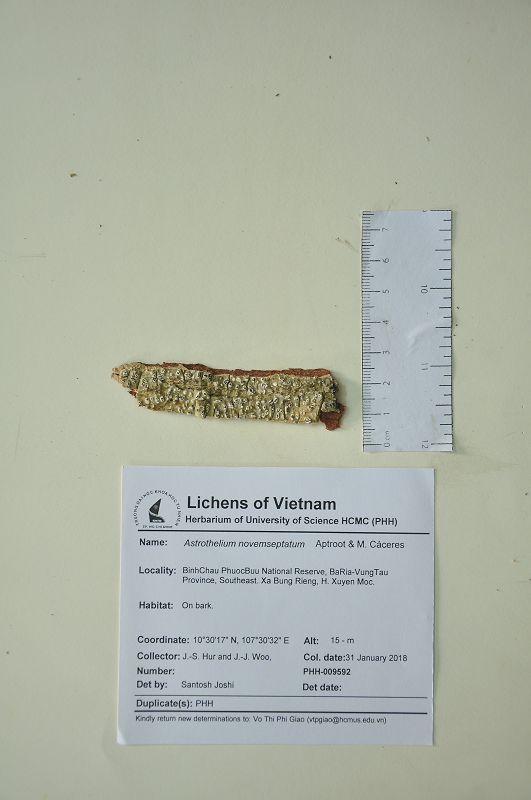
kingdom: Fungi
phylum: Ascomycota
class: Dothideomycetes
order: Trypetheliales
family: Trypetheliaceae
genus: Astrothelium
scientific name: Astrothelium novemseptatum
